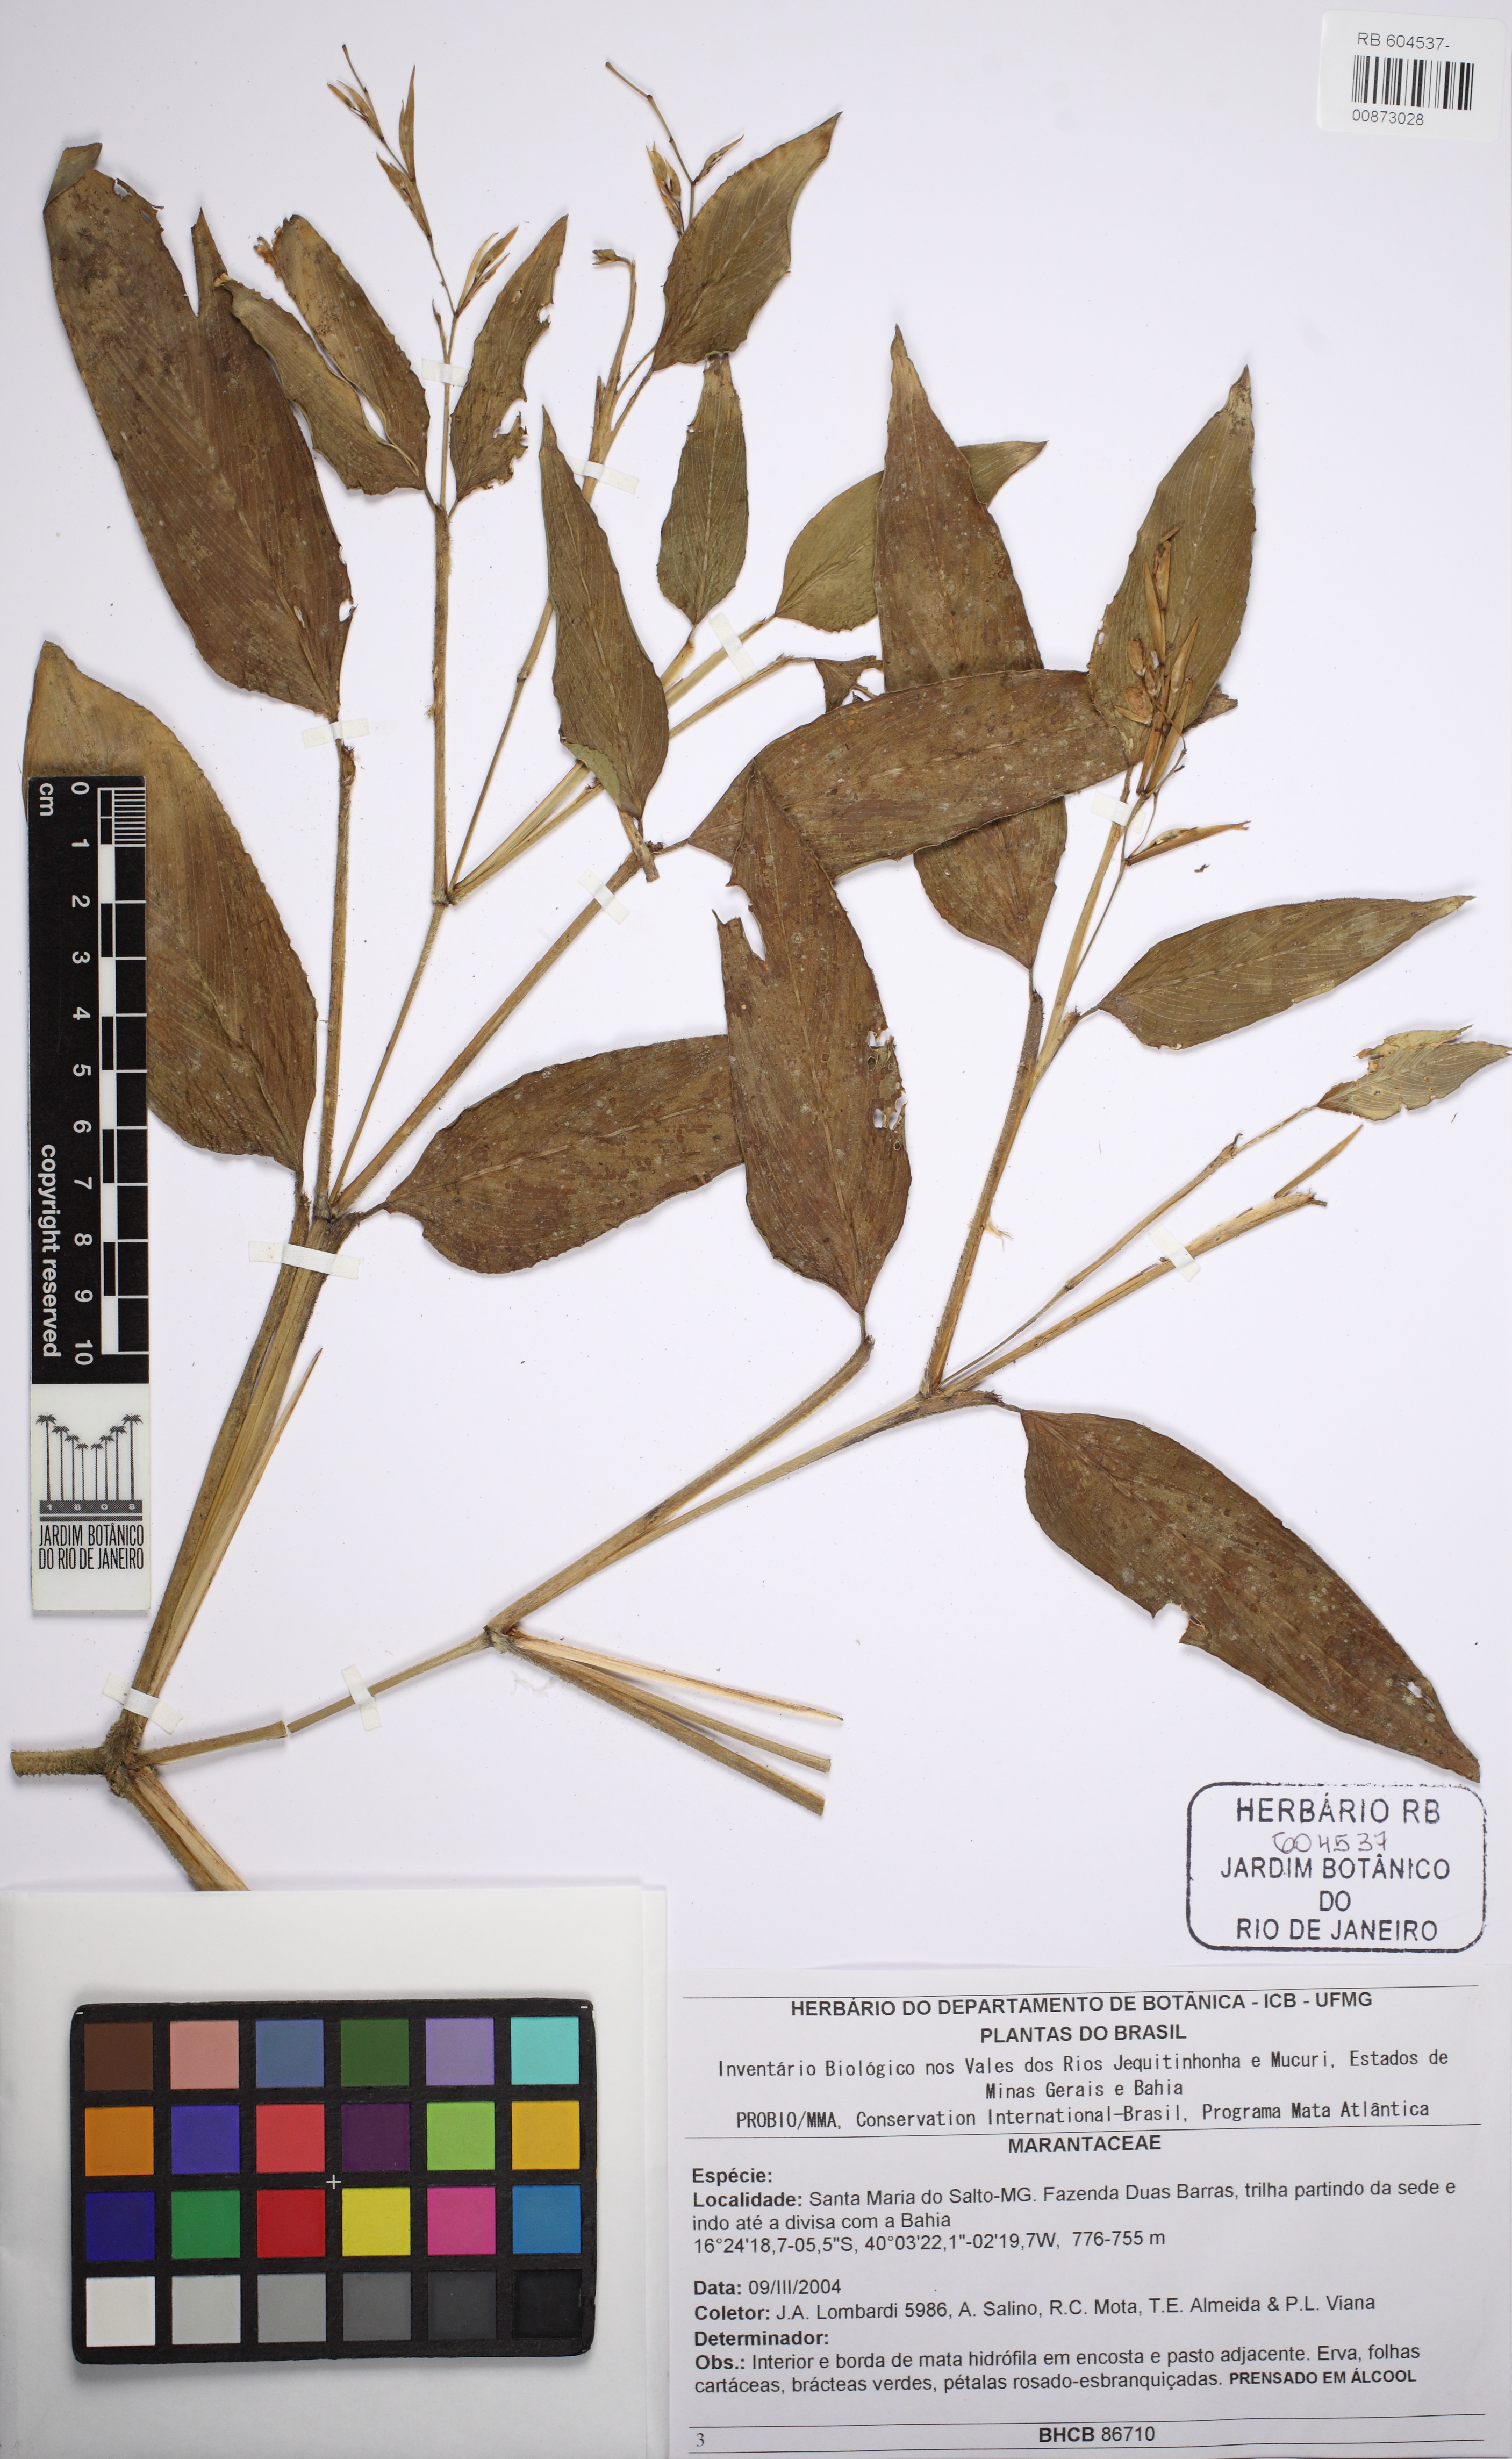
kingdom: Plantae
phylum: Tracheophyta
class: Liliopsida
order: Zingiberales
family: Marantaceae
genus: Stromanthe
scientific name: Stromanthe
